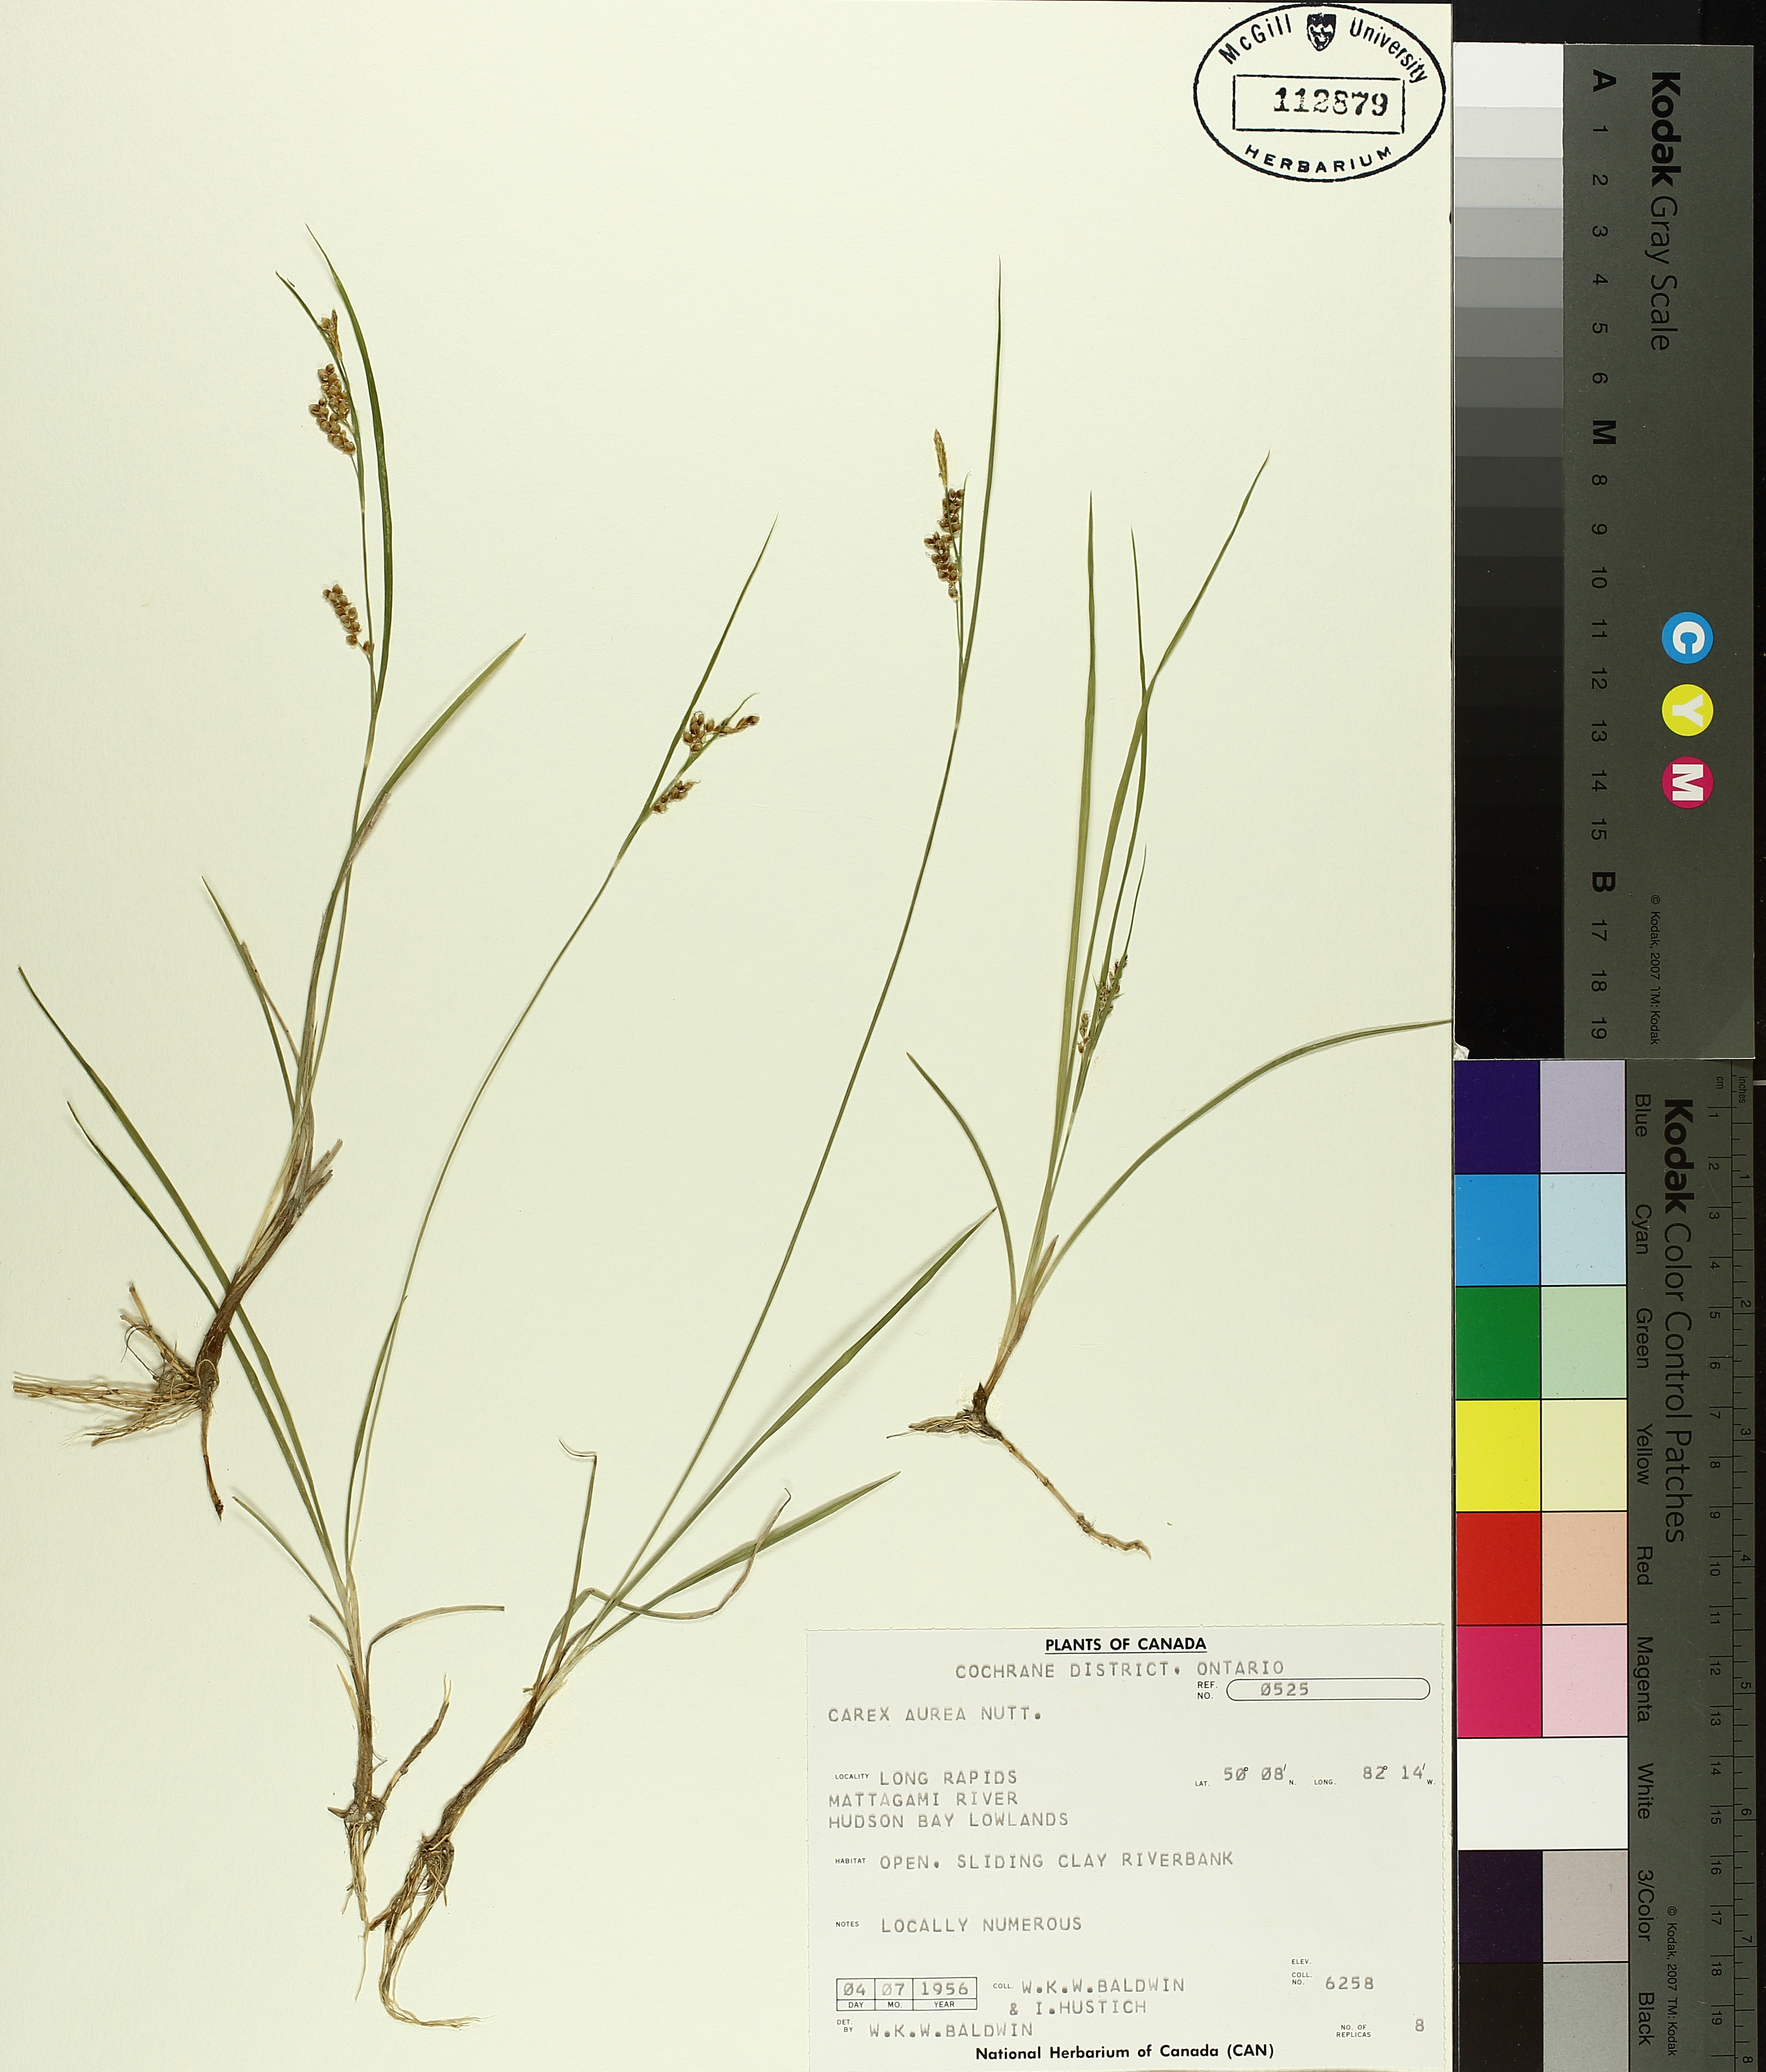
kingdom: Plantae
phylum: Tracheophyta
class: Liliopsida
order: Poales
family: Cyperaceae
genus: Carex
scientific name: Carex aurea
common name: Golden sedge
